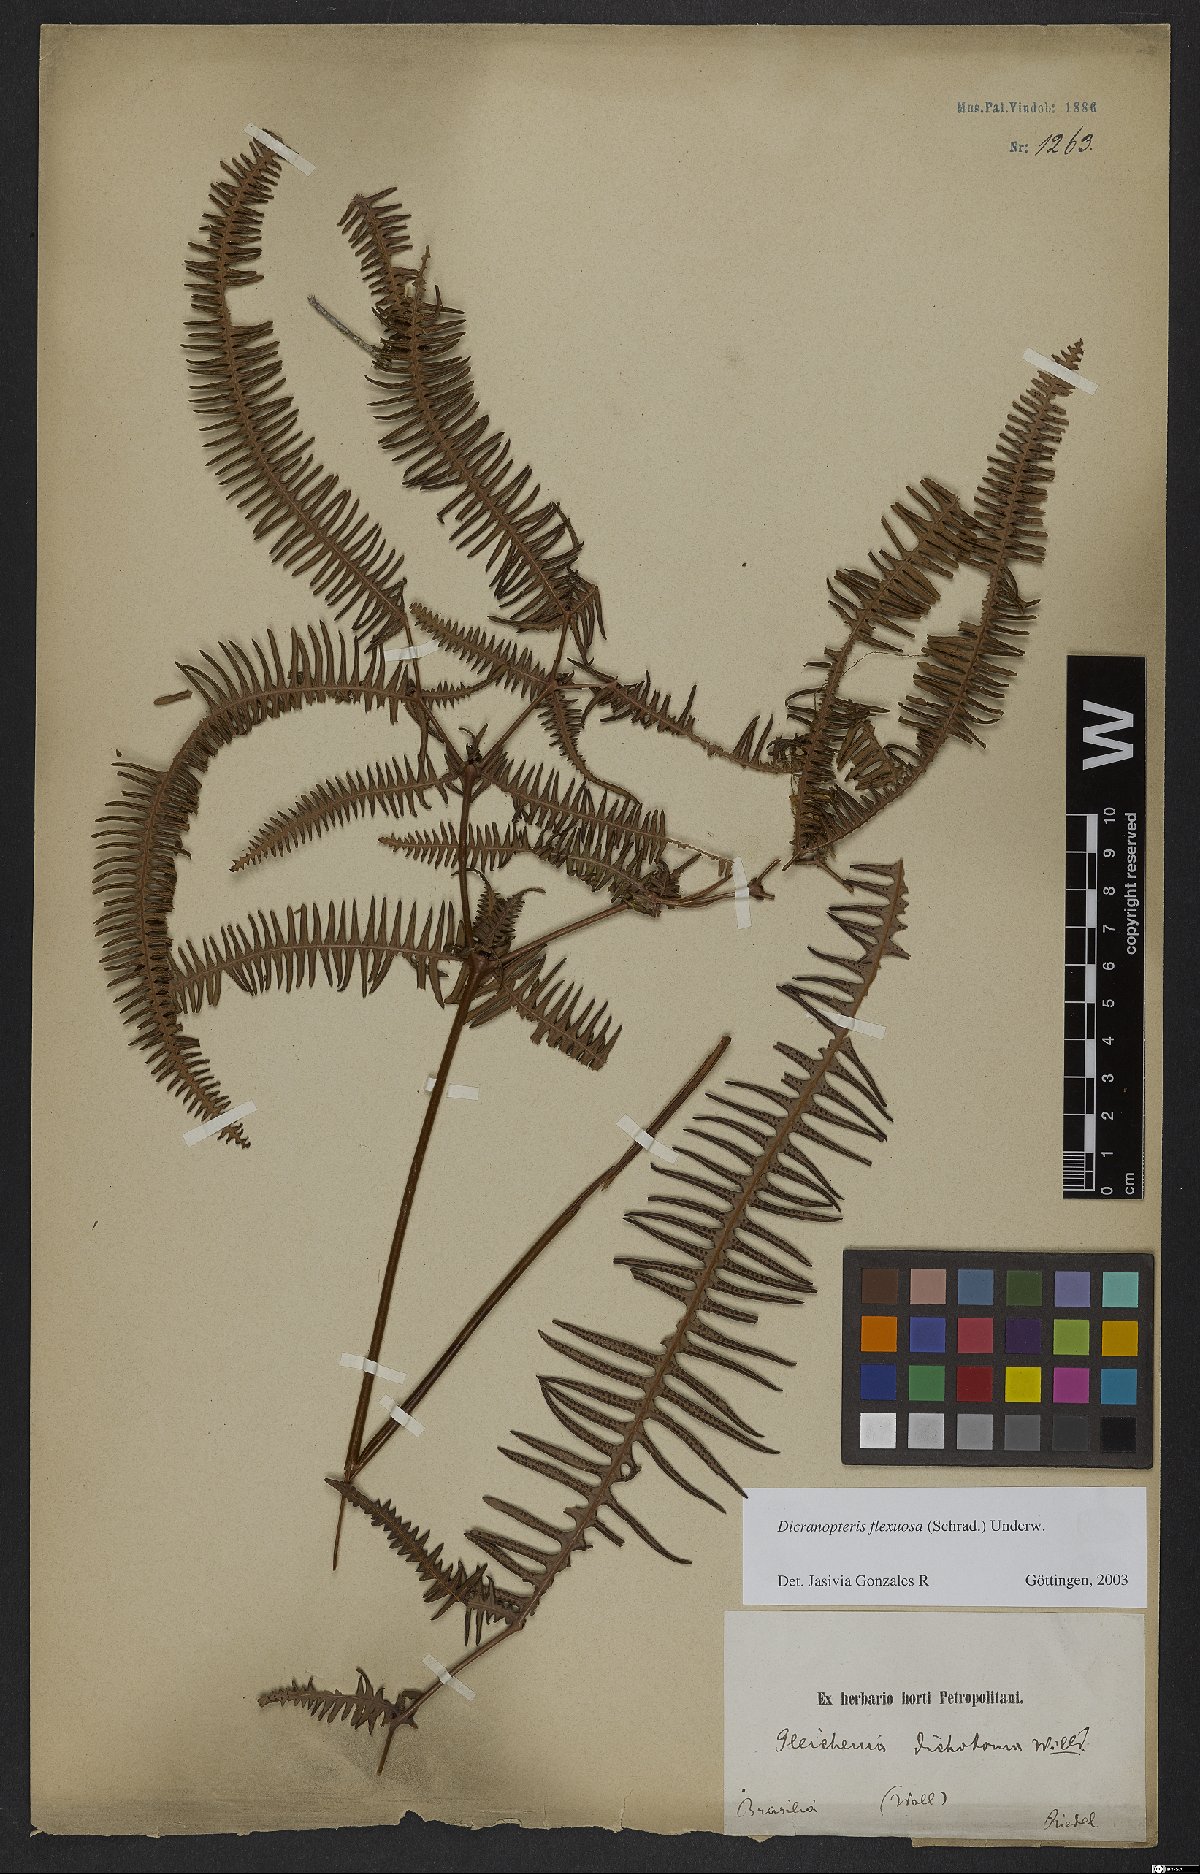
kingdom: Plantae
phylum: Tracheophyta
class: Polypodiopsida
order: Gleicheniales
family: Gleicheniaceae
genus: Dicranopteris
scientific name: Dicranopteris flexuosa
